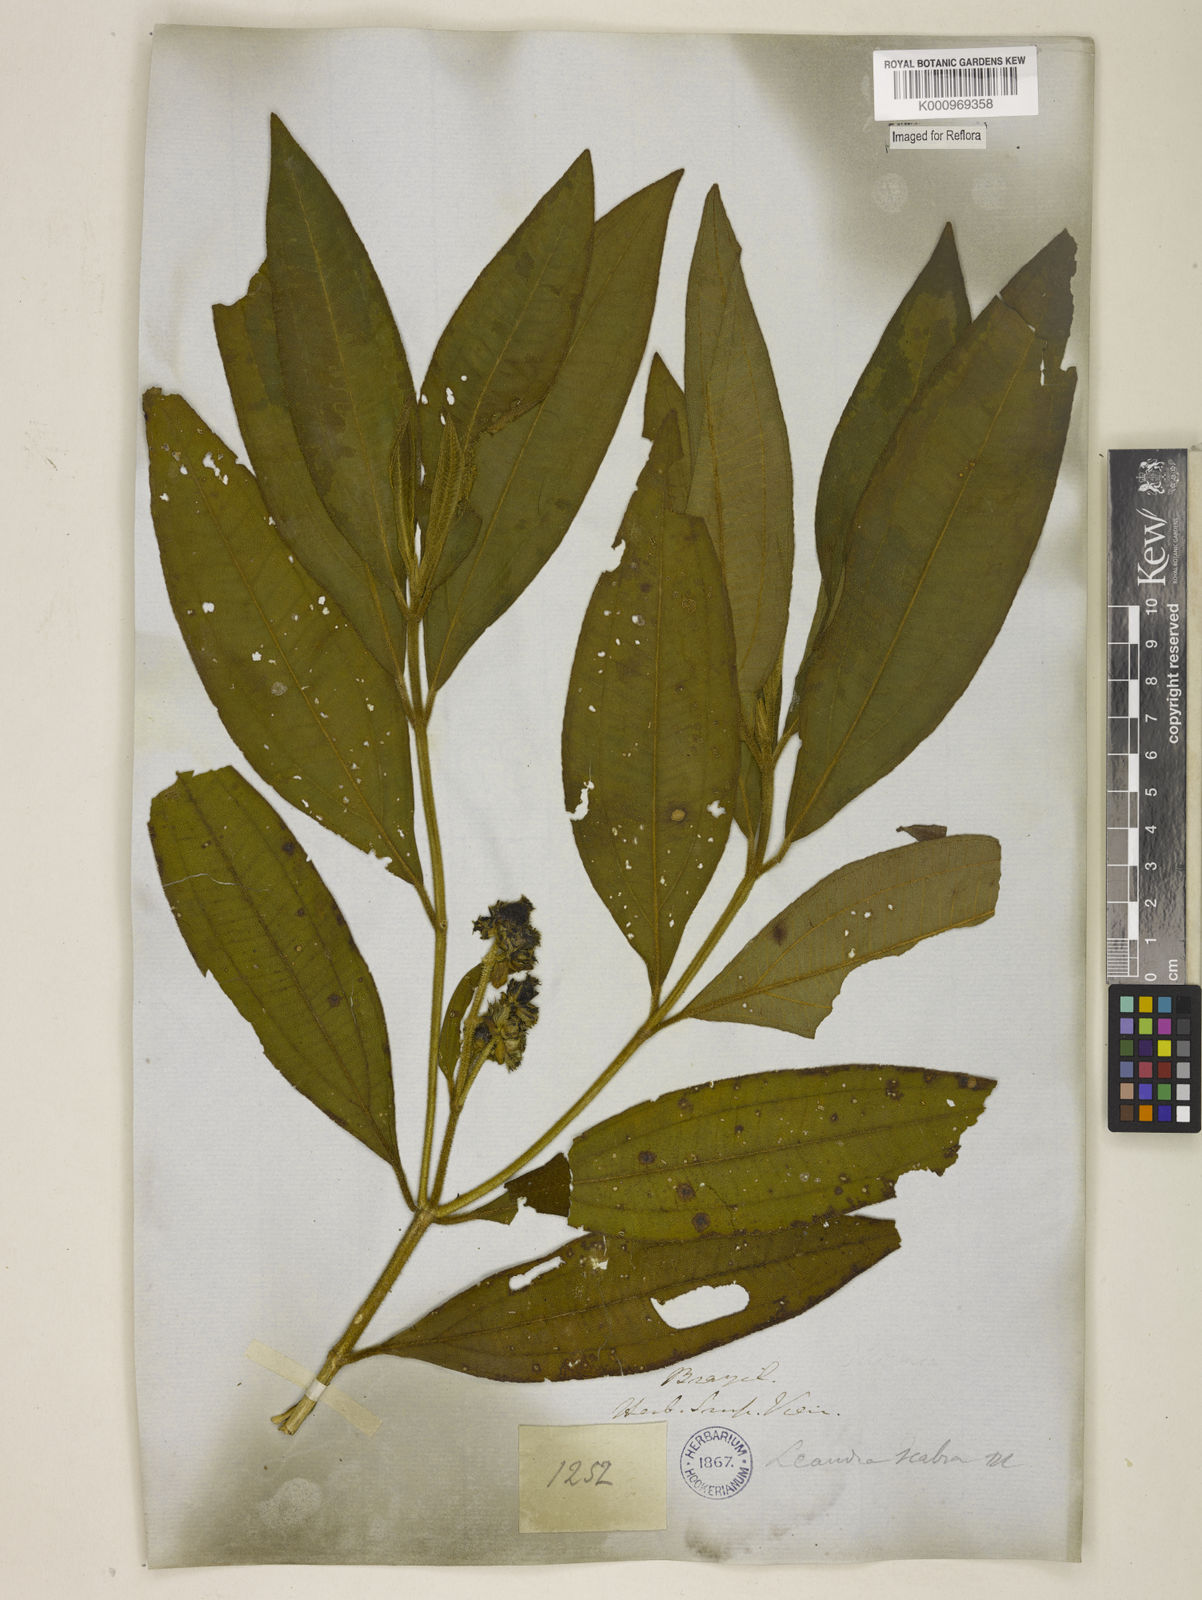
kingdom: Plantae
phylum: Tracheophyta
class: Magnoliopsida
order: Myrtales
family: Melastomataceae
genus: Miconia
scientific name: Miconia melastomoides
